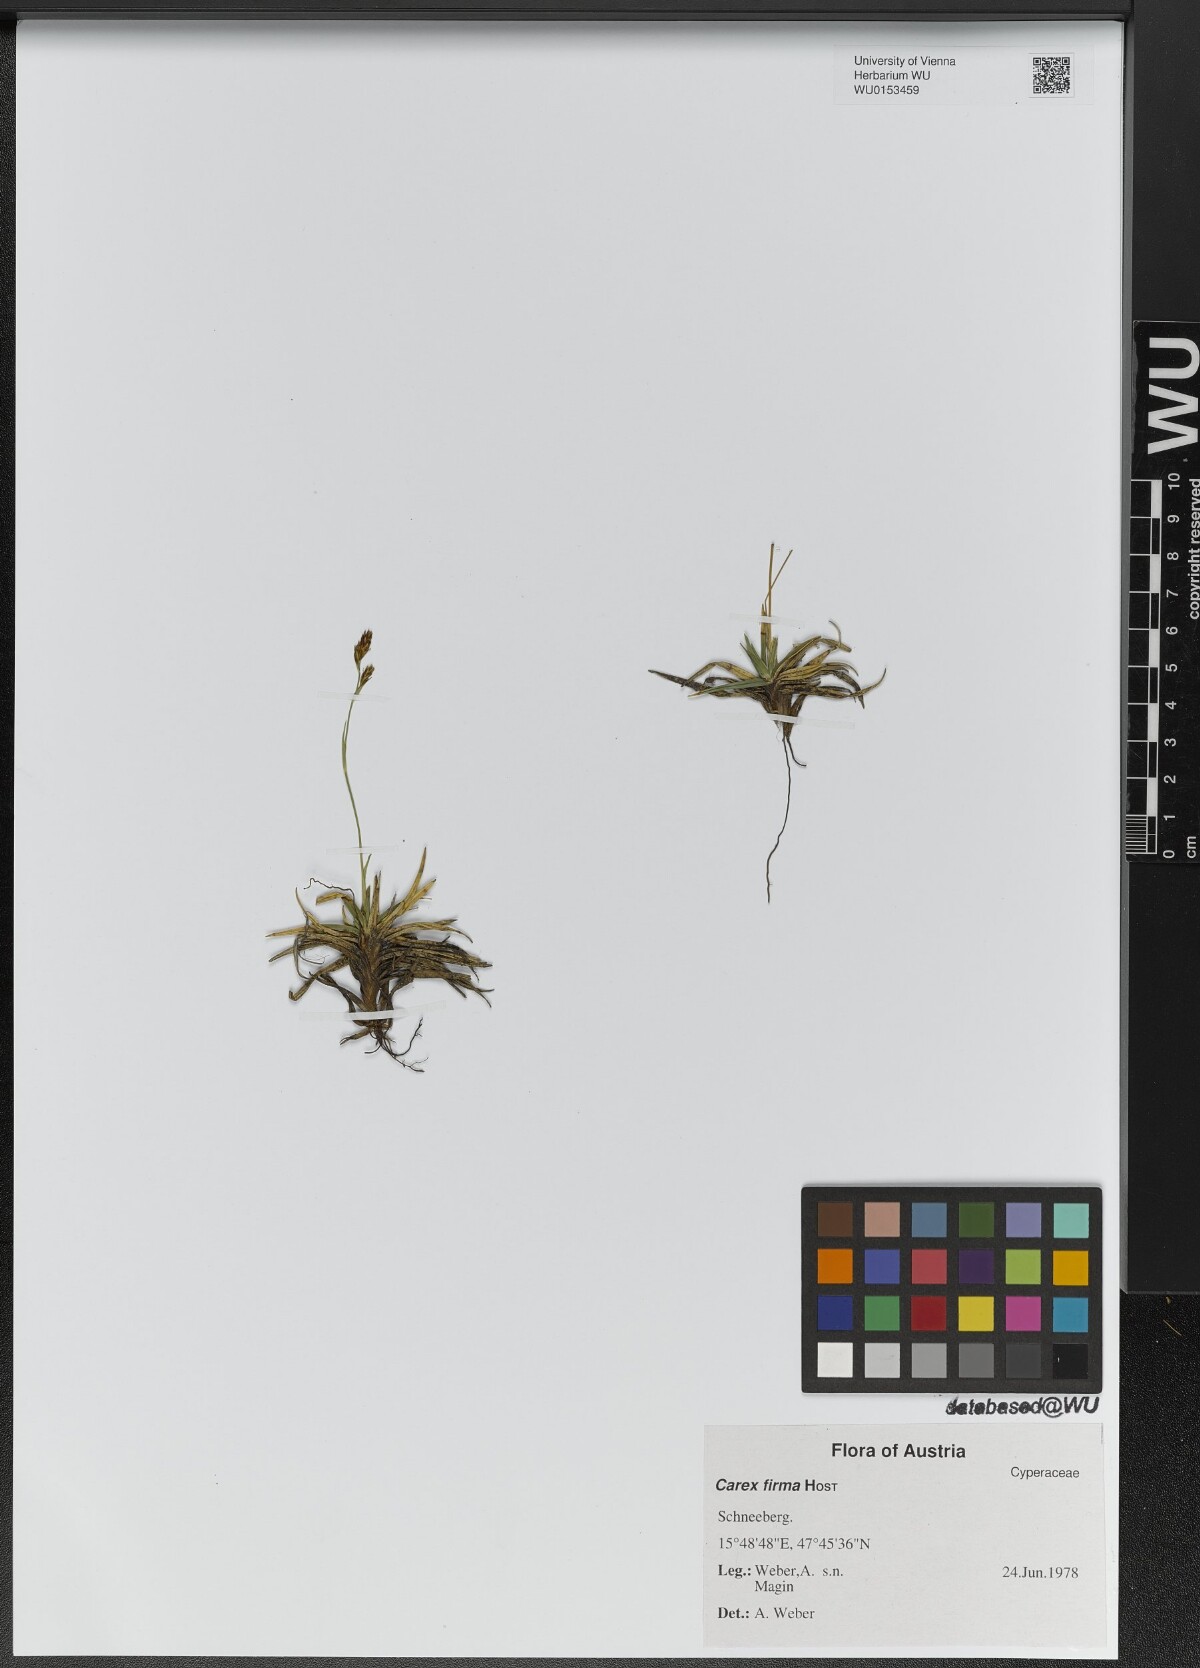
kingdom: Plantae
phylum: Tracheophyta
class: Liliopsida
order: Poales
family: Cyperaceae
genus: Carex
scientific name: Carex firma
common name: Dwarf pillow sedge
